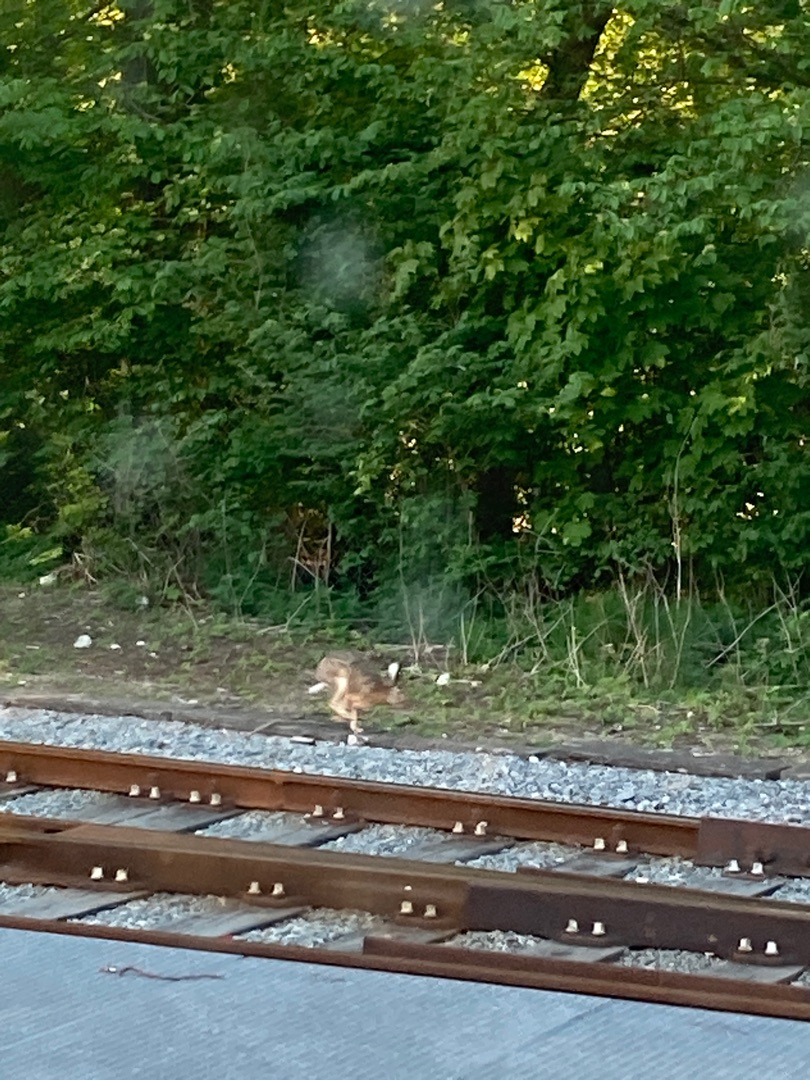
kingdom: Animalia
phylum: Chordata
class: Mammalia
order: Lagomorpha
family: Leporidae
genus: Lepus
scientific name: Lepus europaeus
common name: Hare
